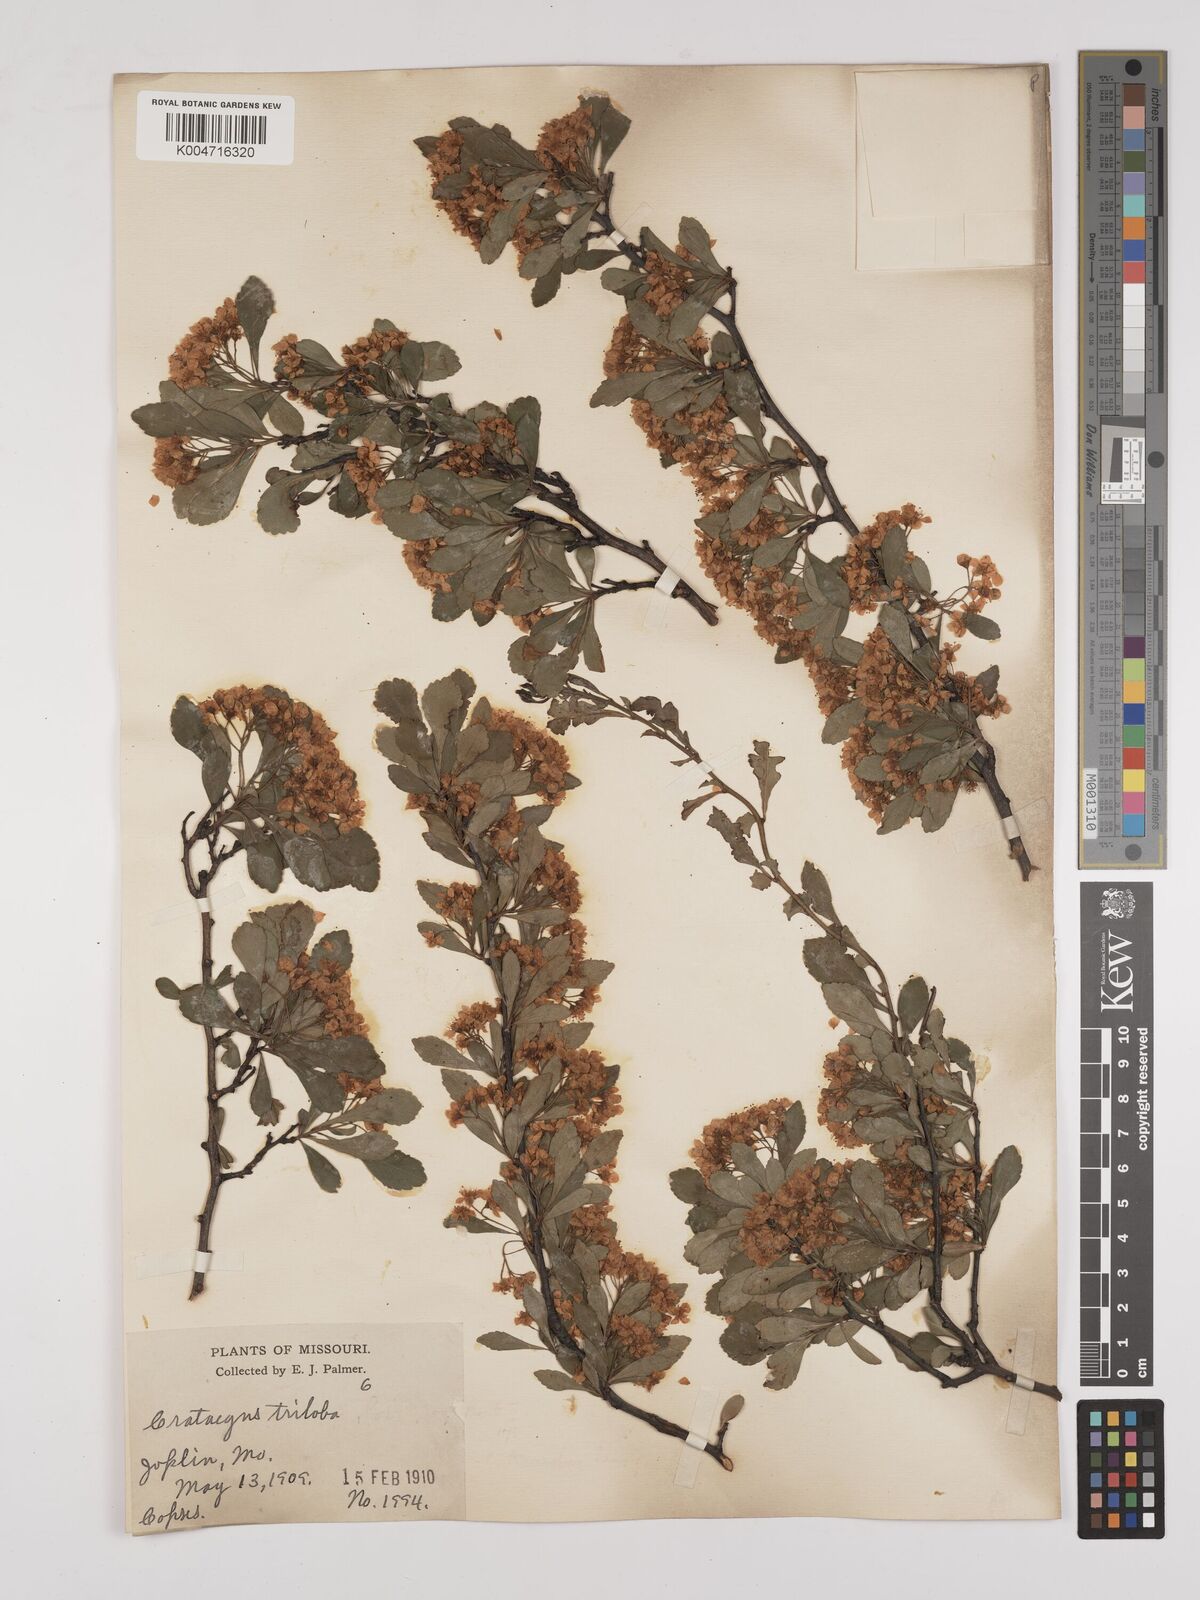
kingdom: Plantae
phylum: Tracheophyta
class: Magnoliopsida
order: Rosales
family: Rosaceae
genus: Crataegus
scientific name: Crataegus
